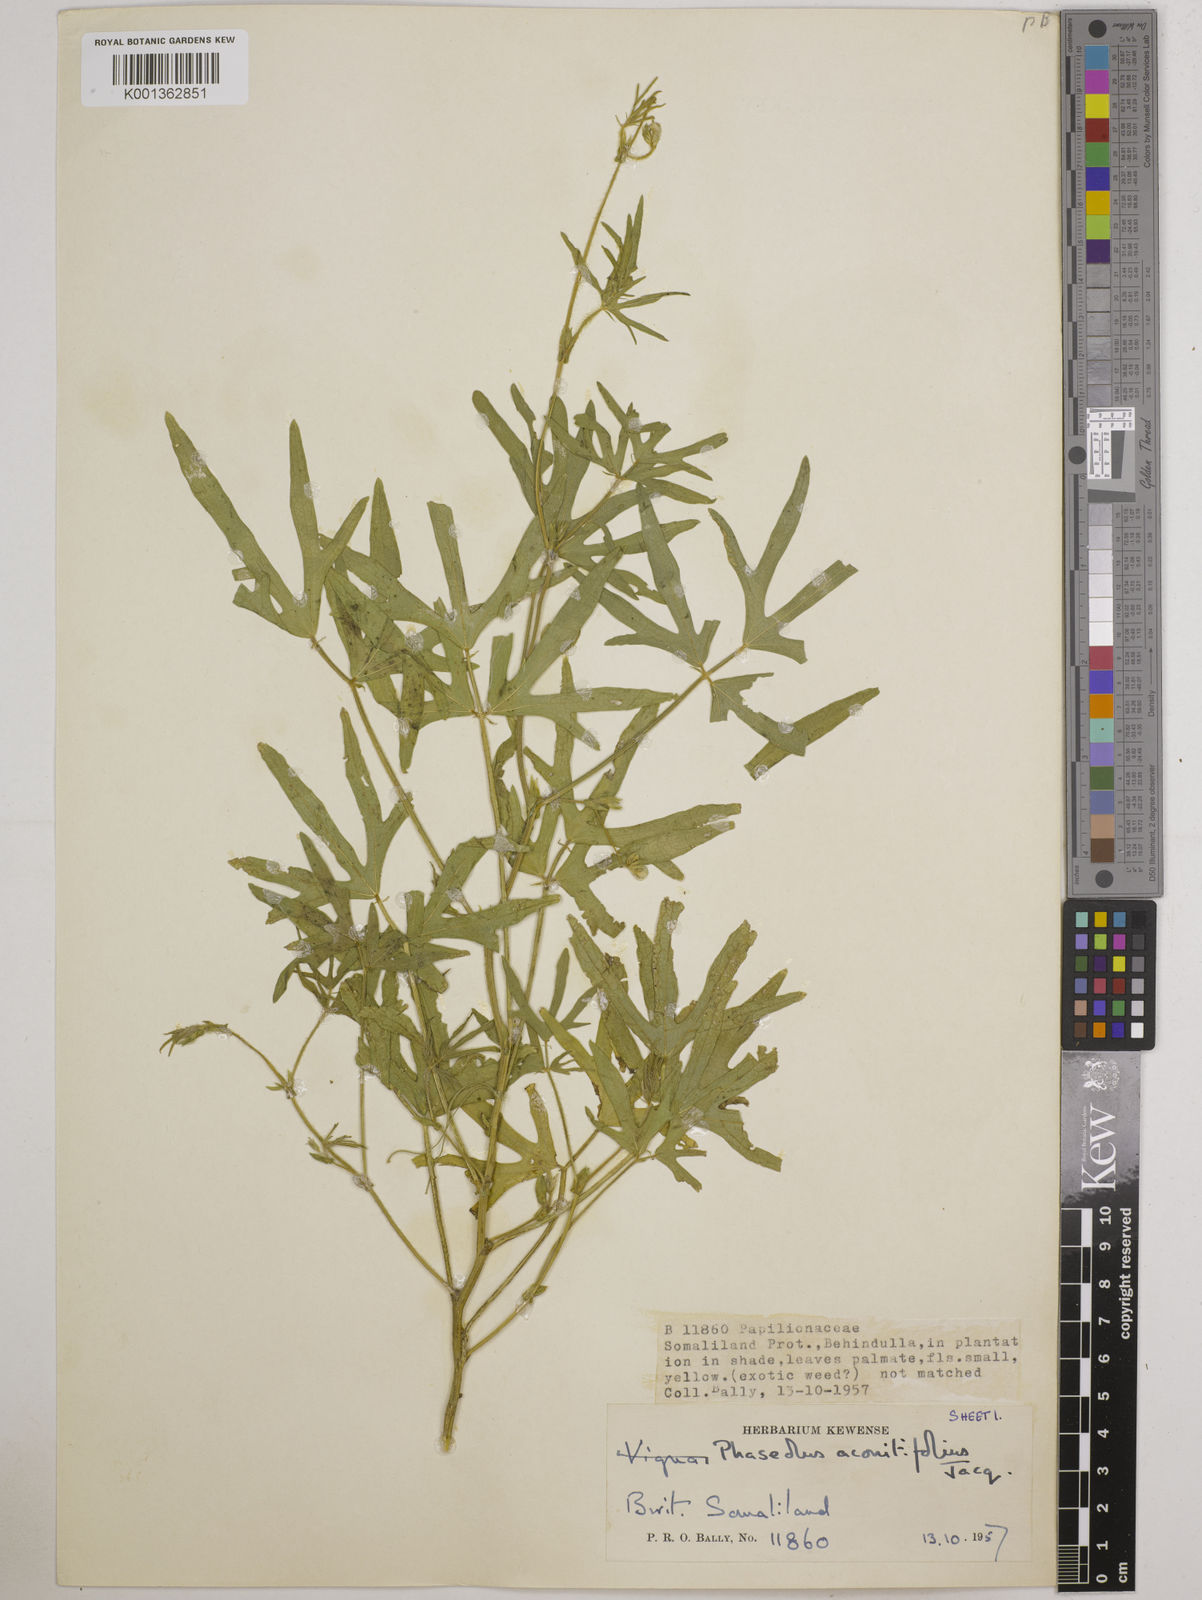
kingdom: Plantae
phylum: Tracheophyta
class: Magnoliopsida
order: Fabales
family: Fabaceae
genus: Vigna
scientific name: Vigna aconitifolia
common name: Dew bean
